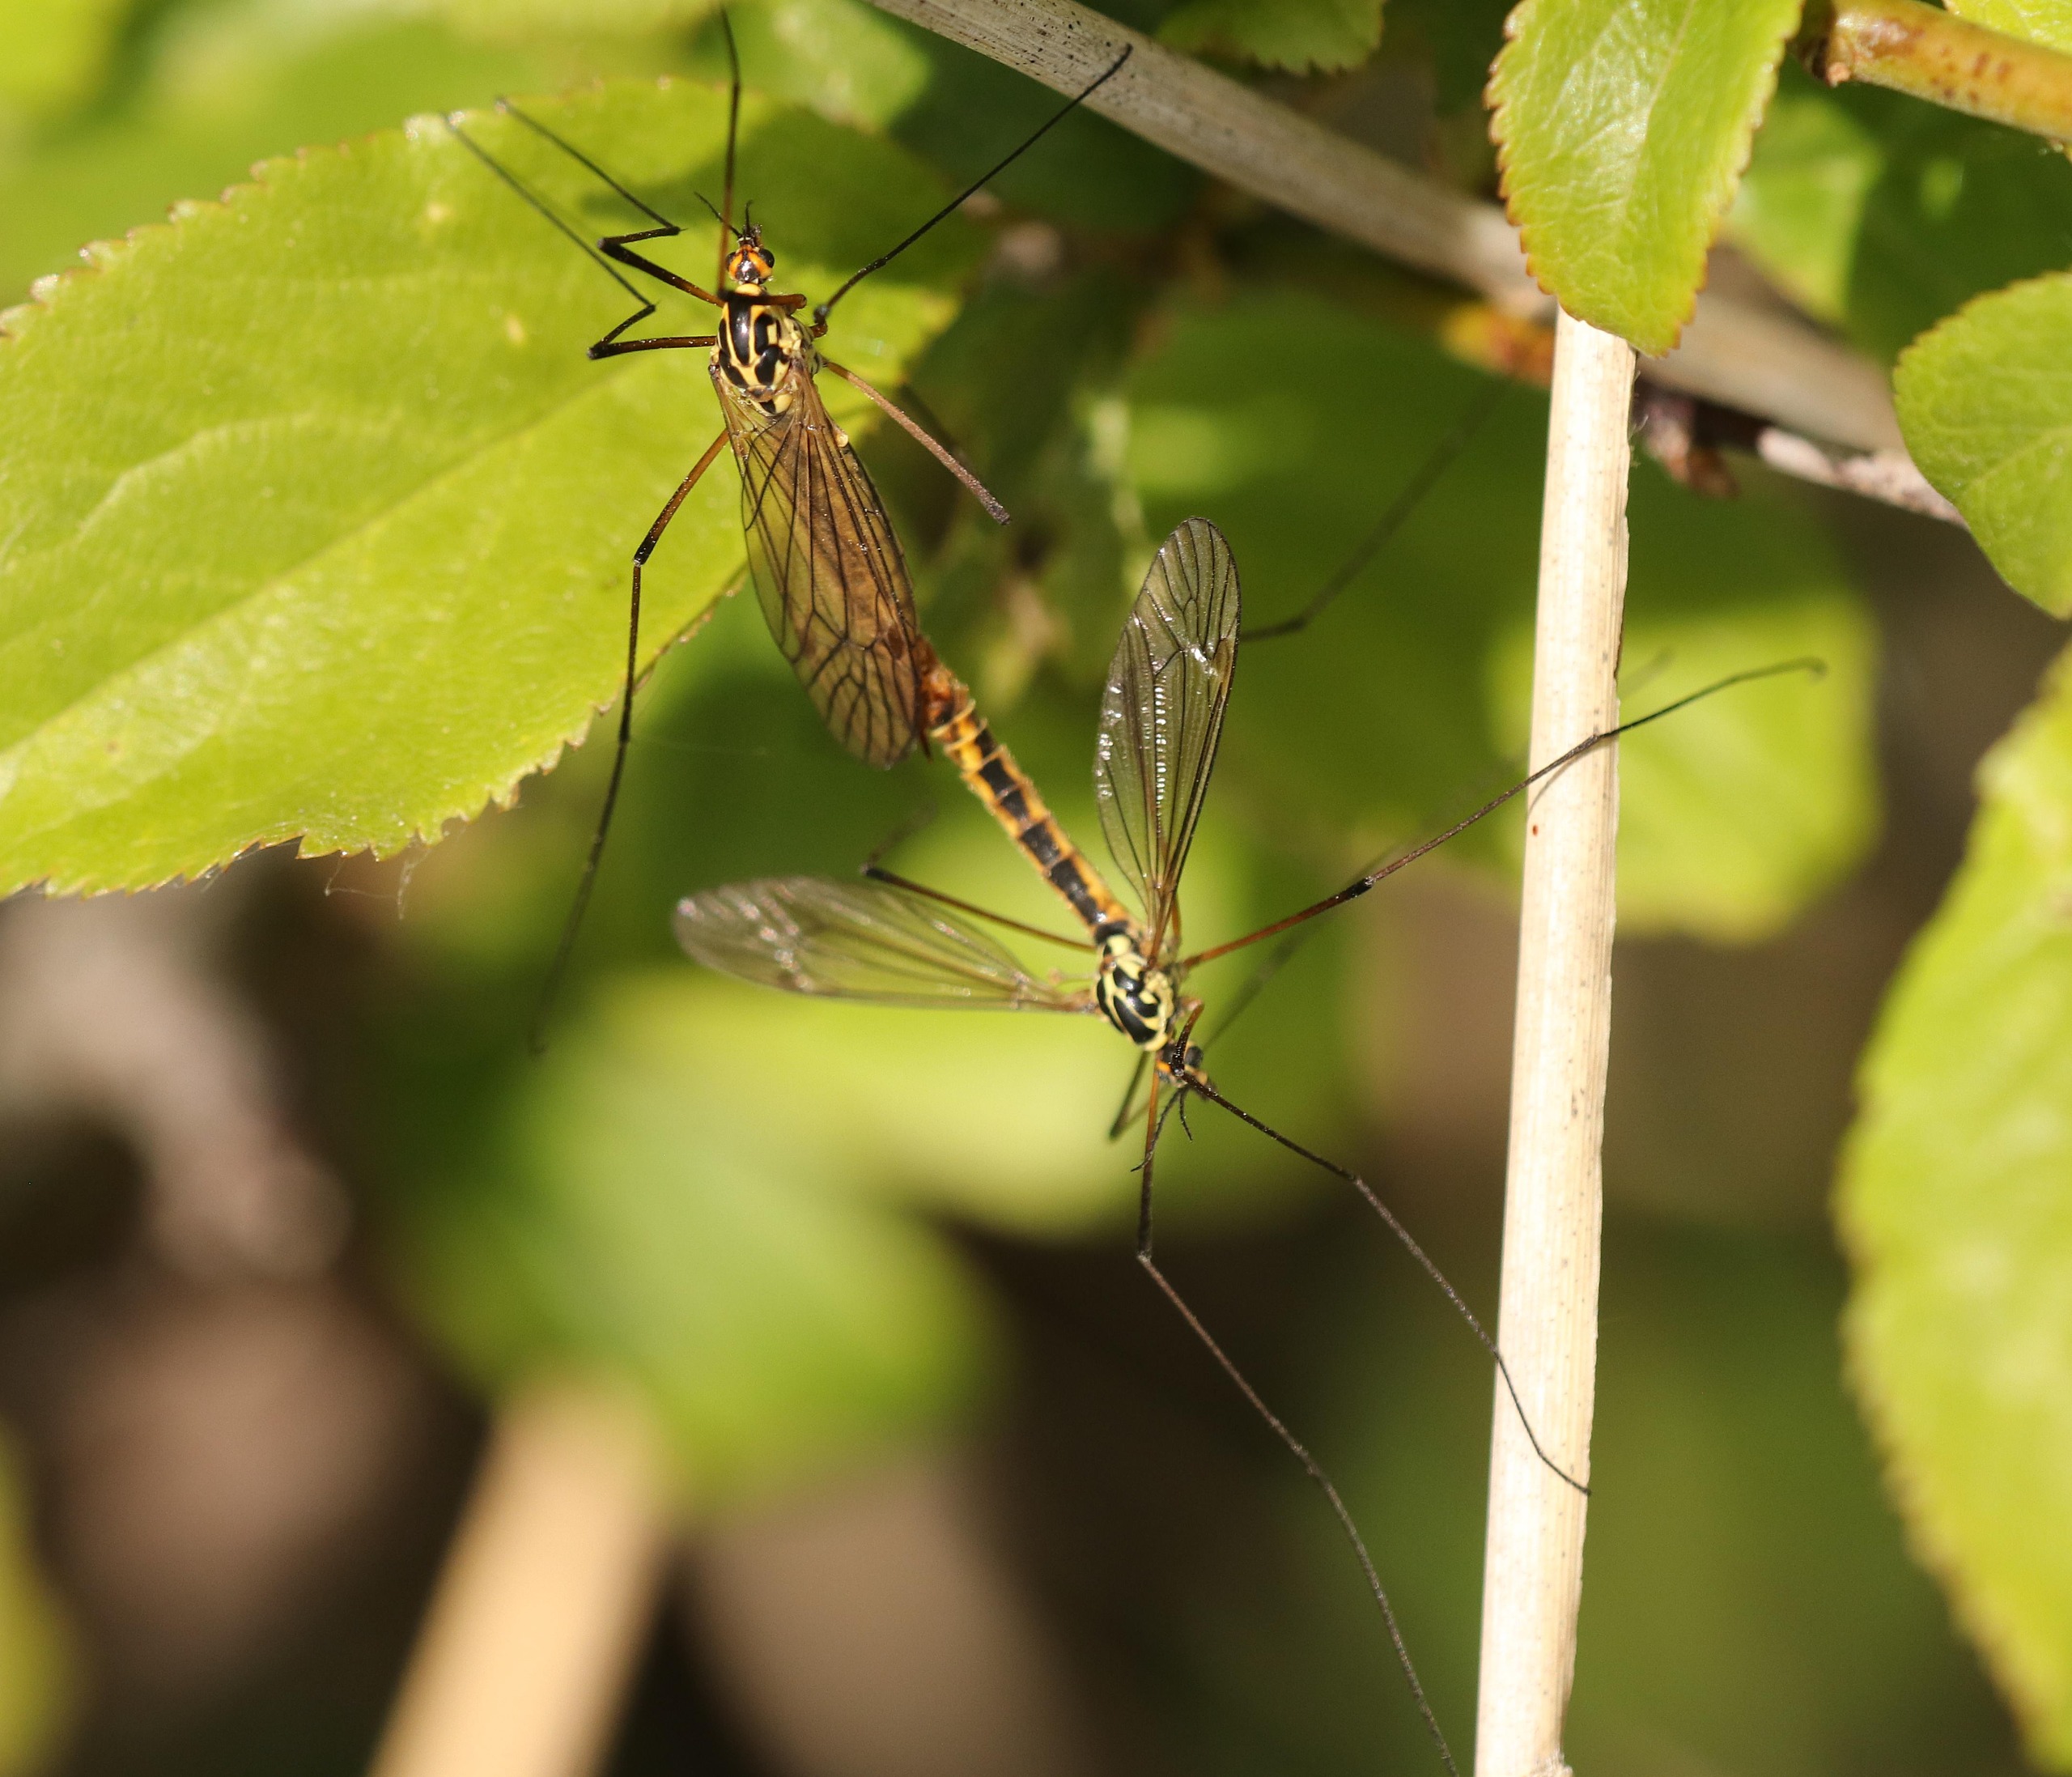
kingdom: Animalia
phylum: Arthropoda
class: Insecta
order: Diptera
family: Tipulidae
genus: Nephrotoma
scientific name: Nephrotoma appendiculata
